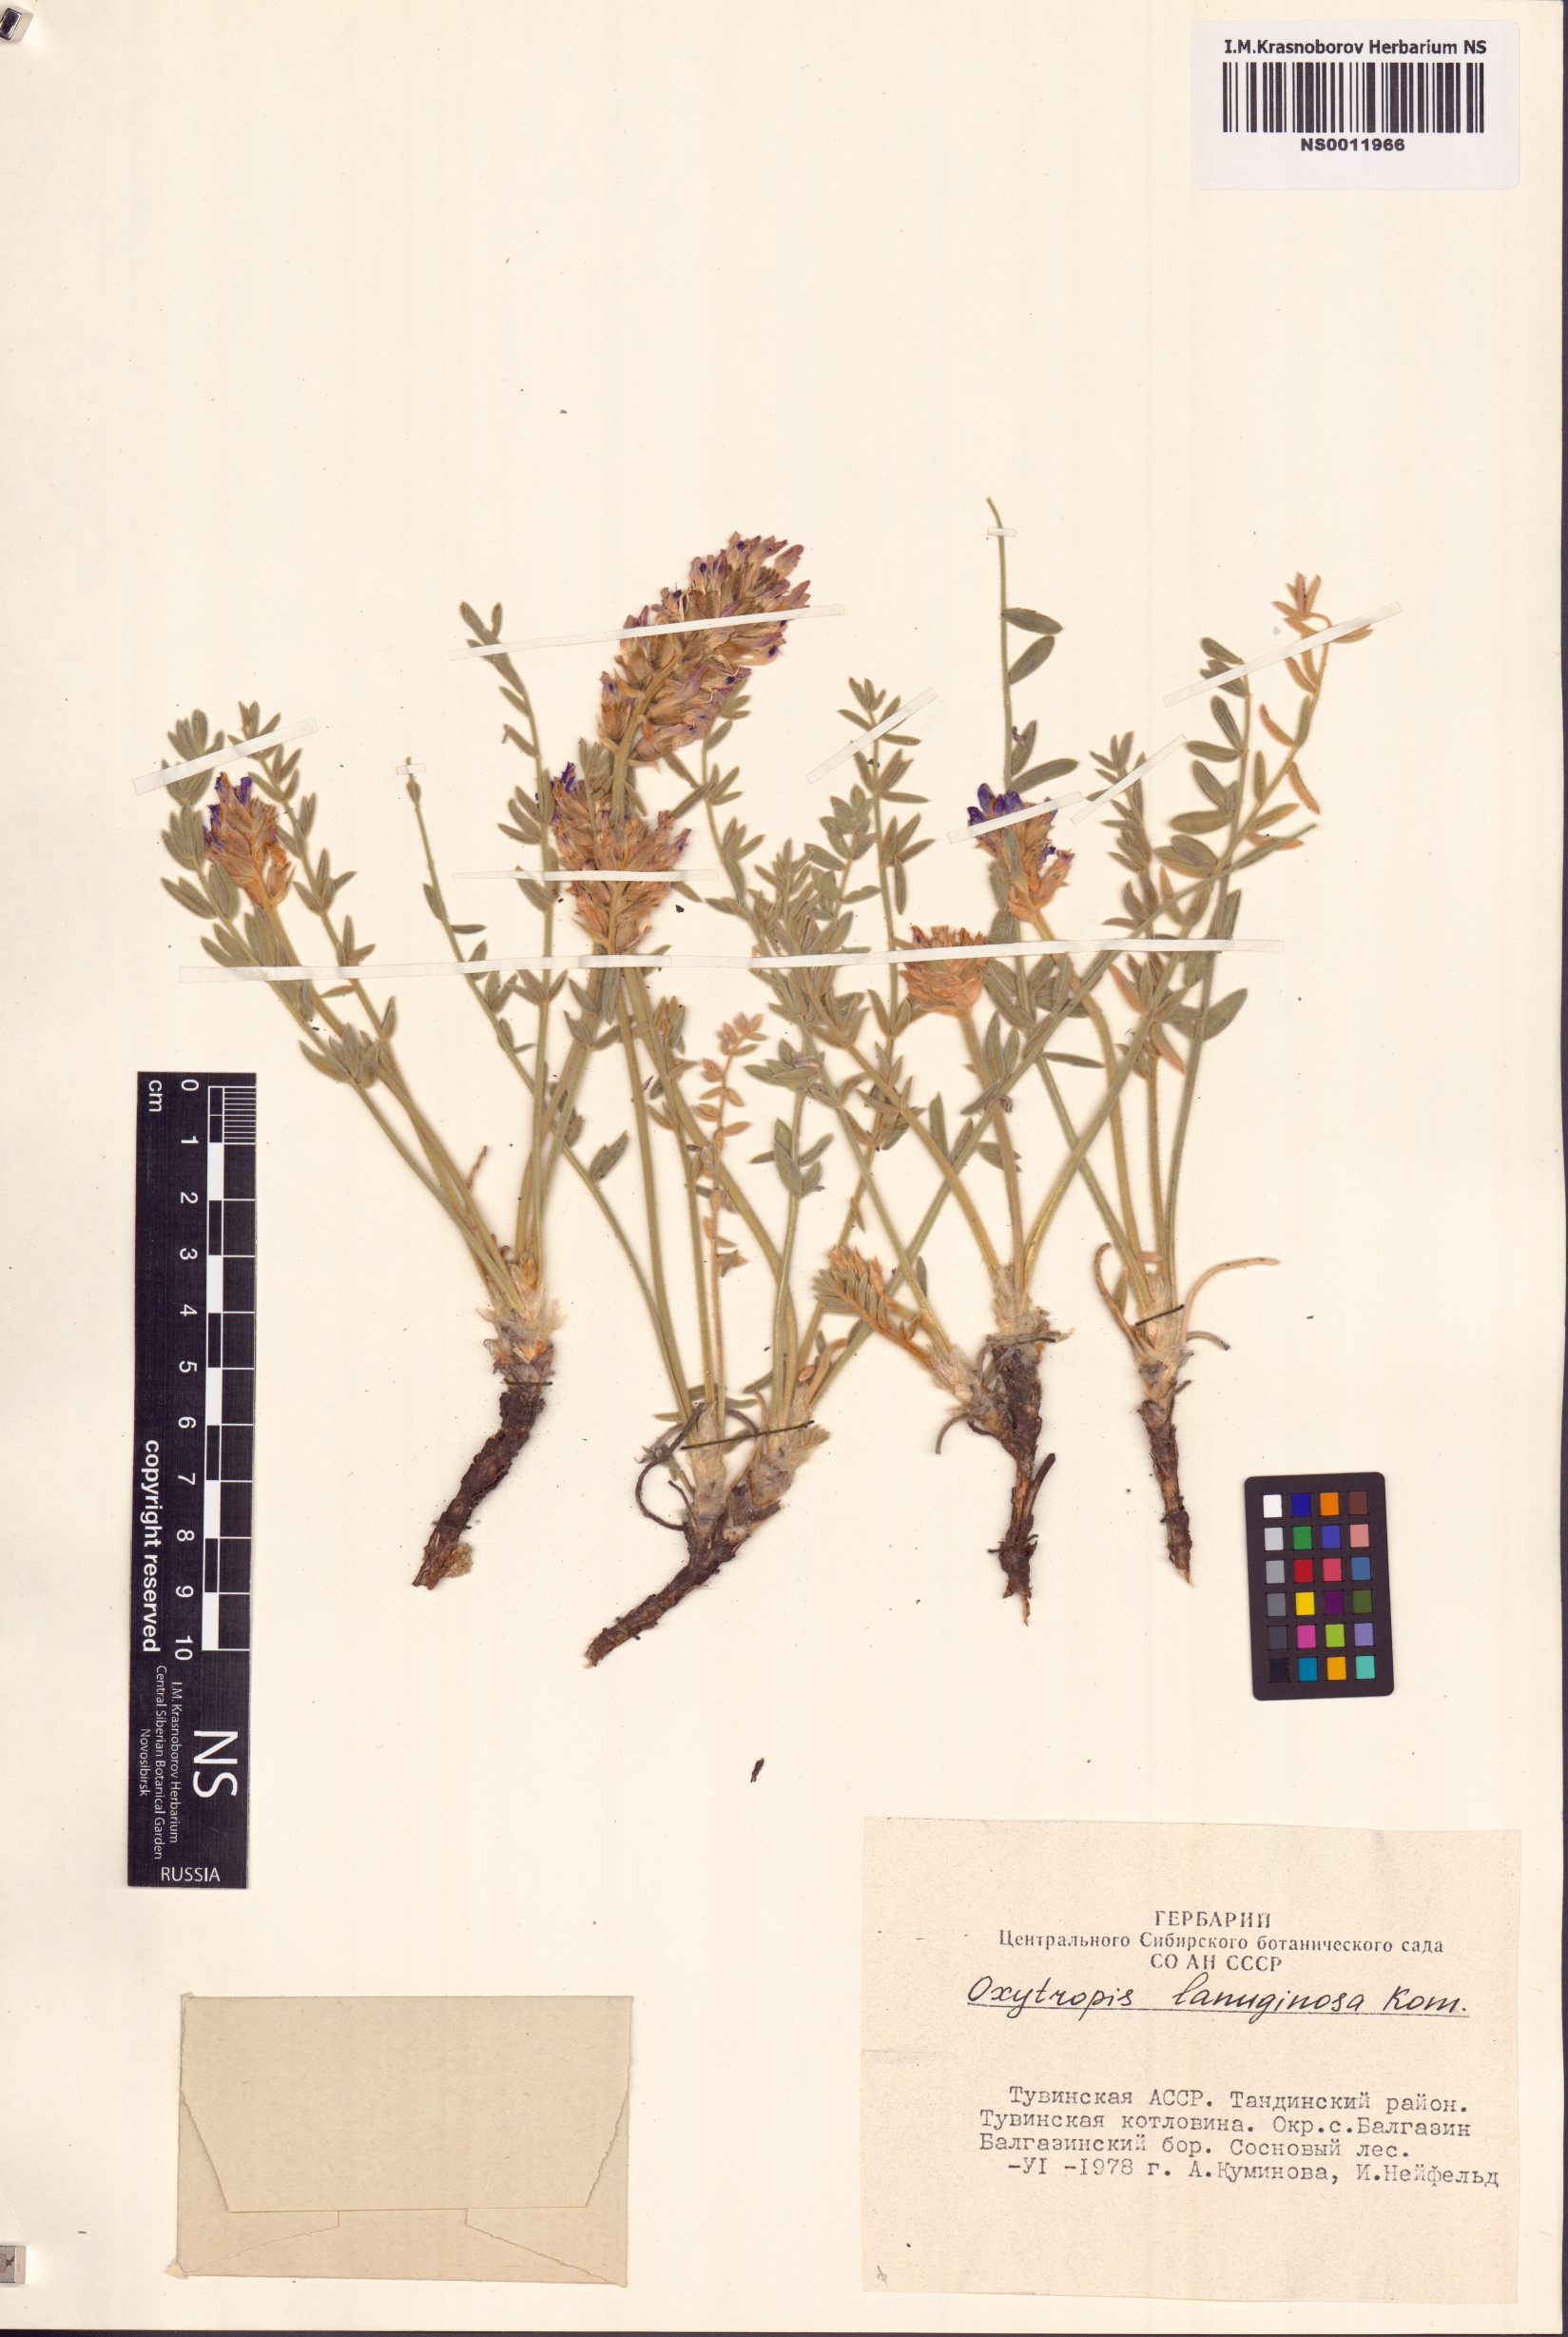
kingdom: Plantae
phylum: Tracheophyta
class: Magnoliopsida
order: Fabales
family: Fabaceae
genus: Oxytropis
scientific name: Oxytropis lanuginosa
